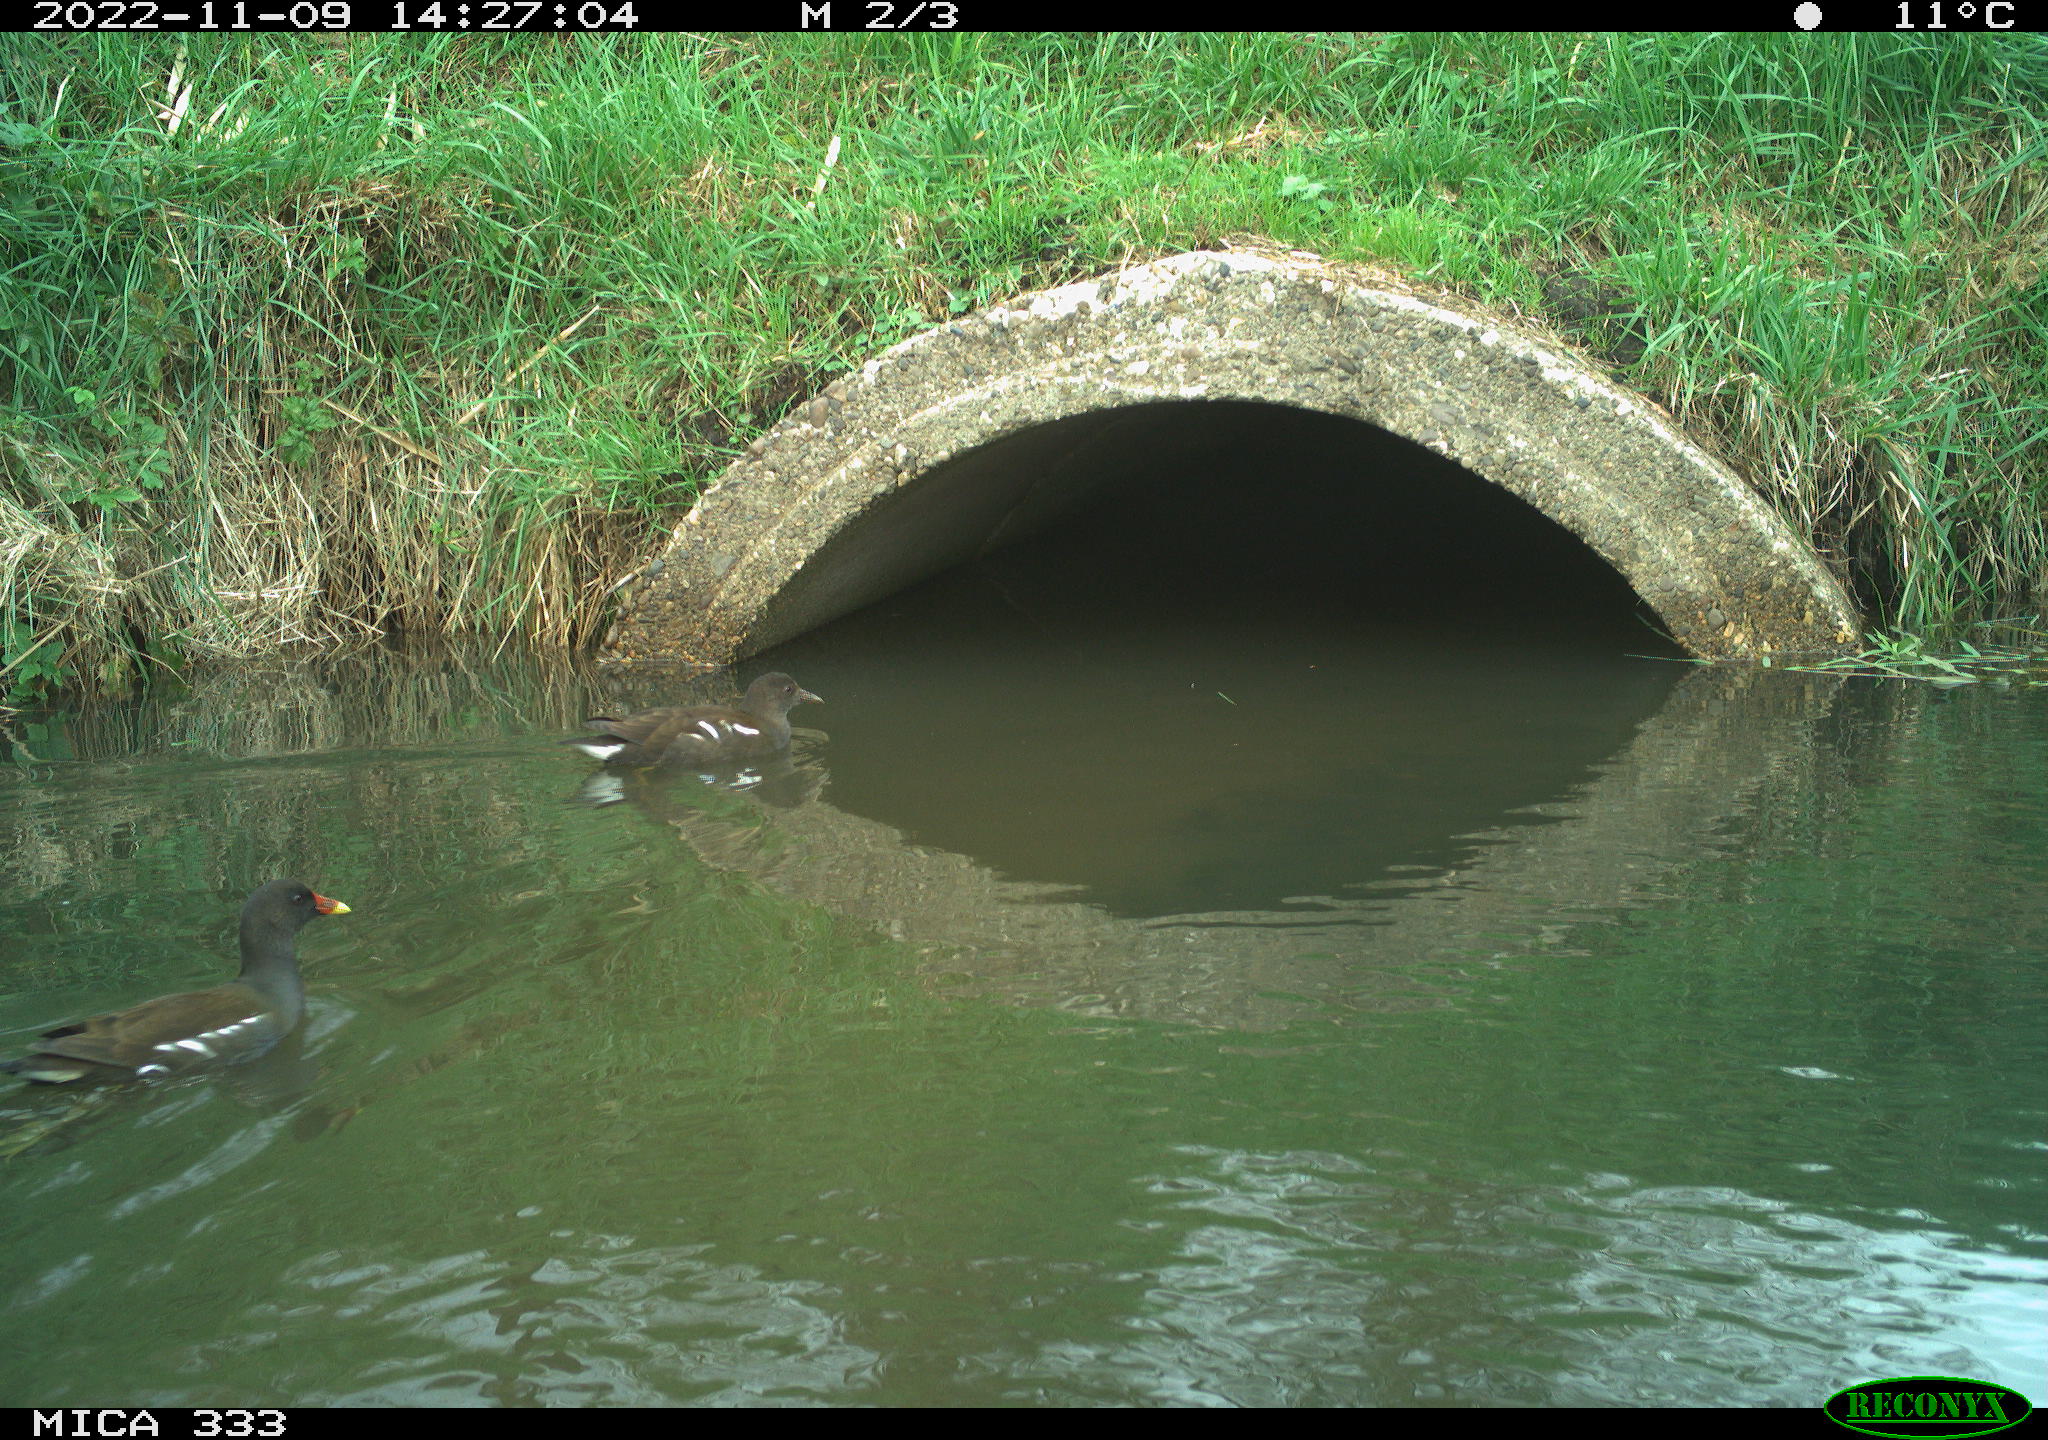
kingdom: Animalia
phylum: Chordata
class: Aves
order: Gruiformes
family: Rallidae
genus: Gallinula
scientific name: Gallinula chloropus
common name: Common moorhen
